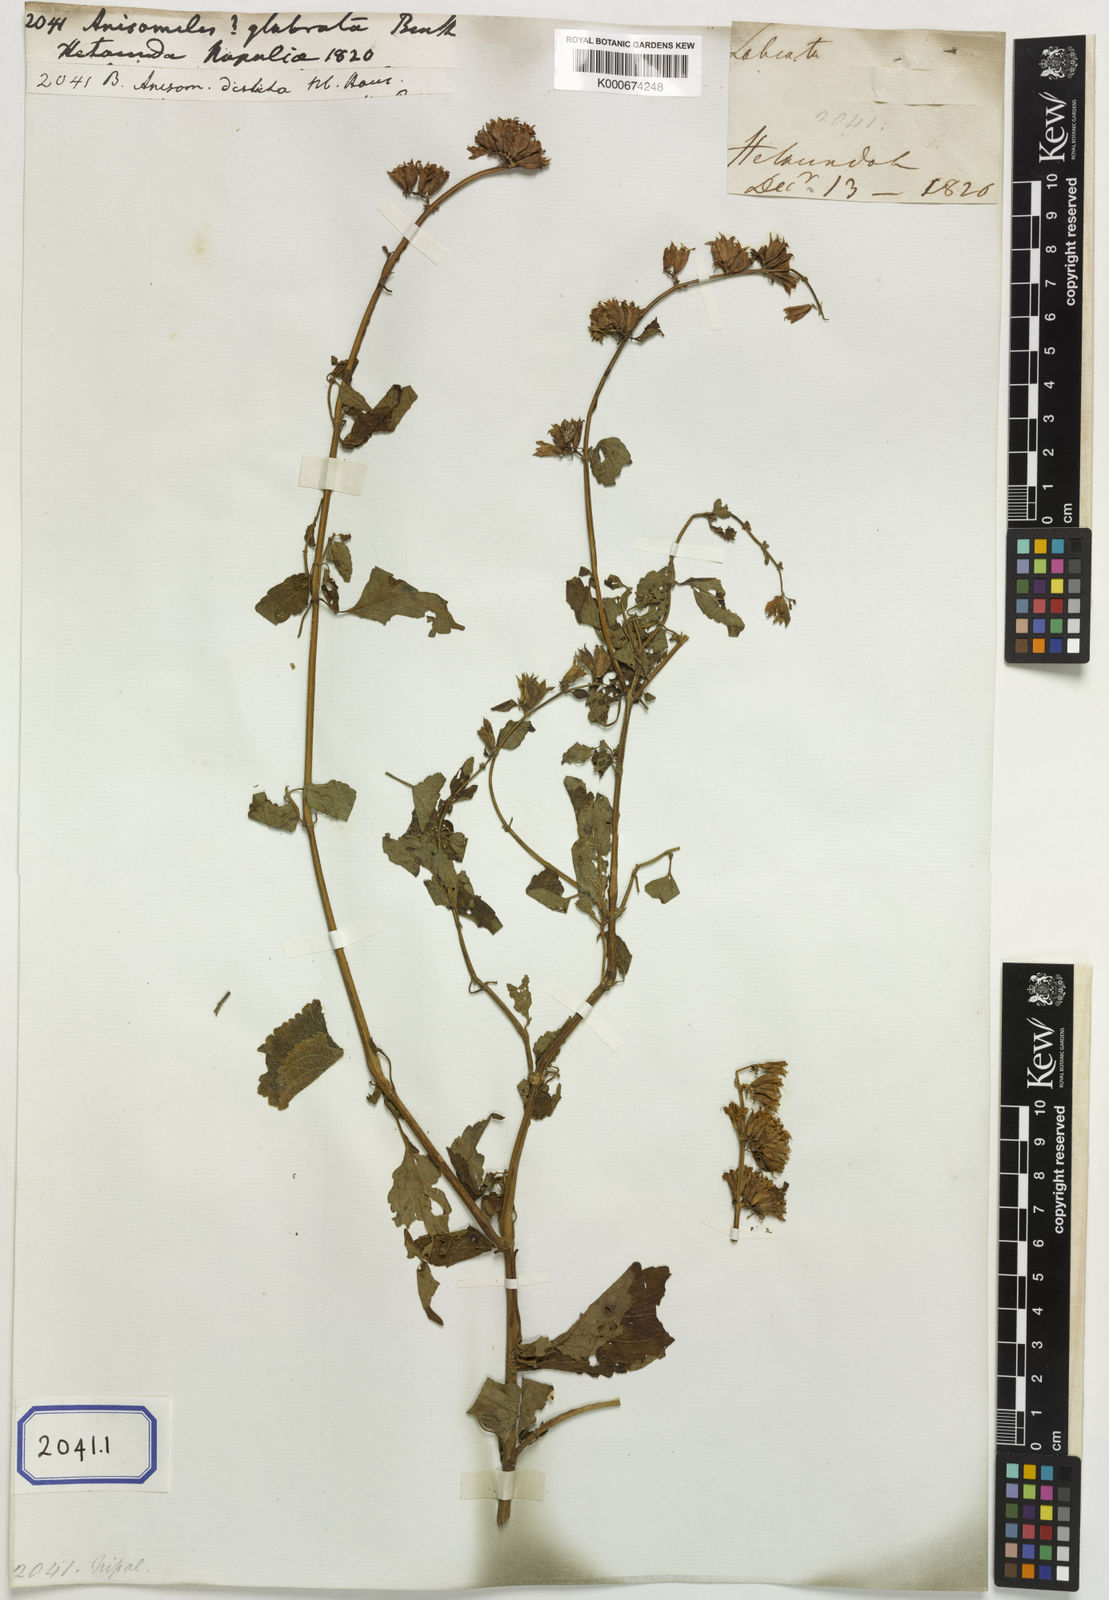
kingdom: Plantae
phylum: Tracheophyta
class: Magnoliopsida
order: Lamiales
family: Lamiaceae
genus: Anisomeles
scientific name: Anisomeles
